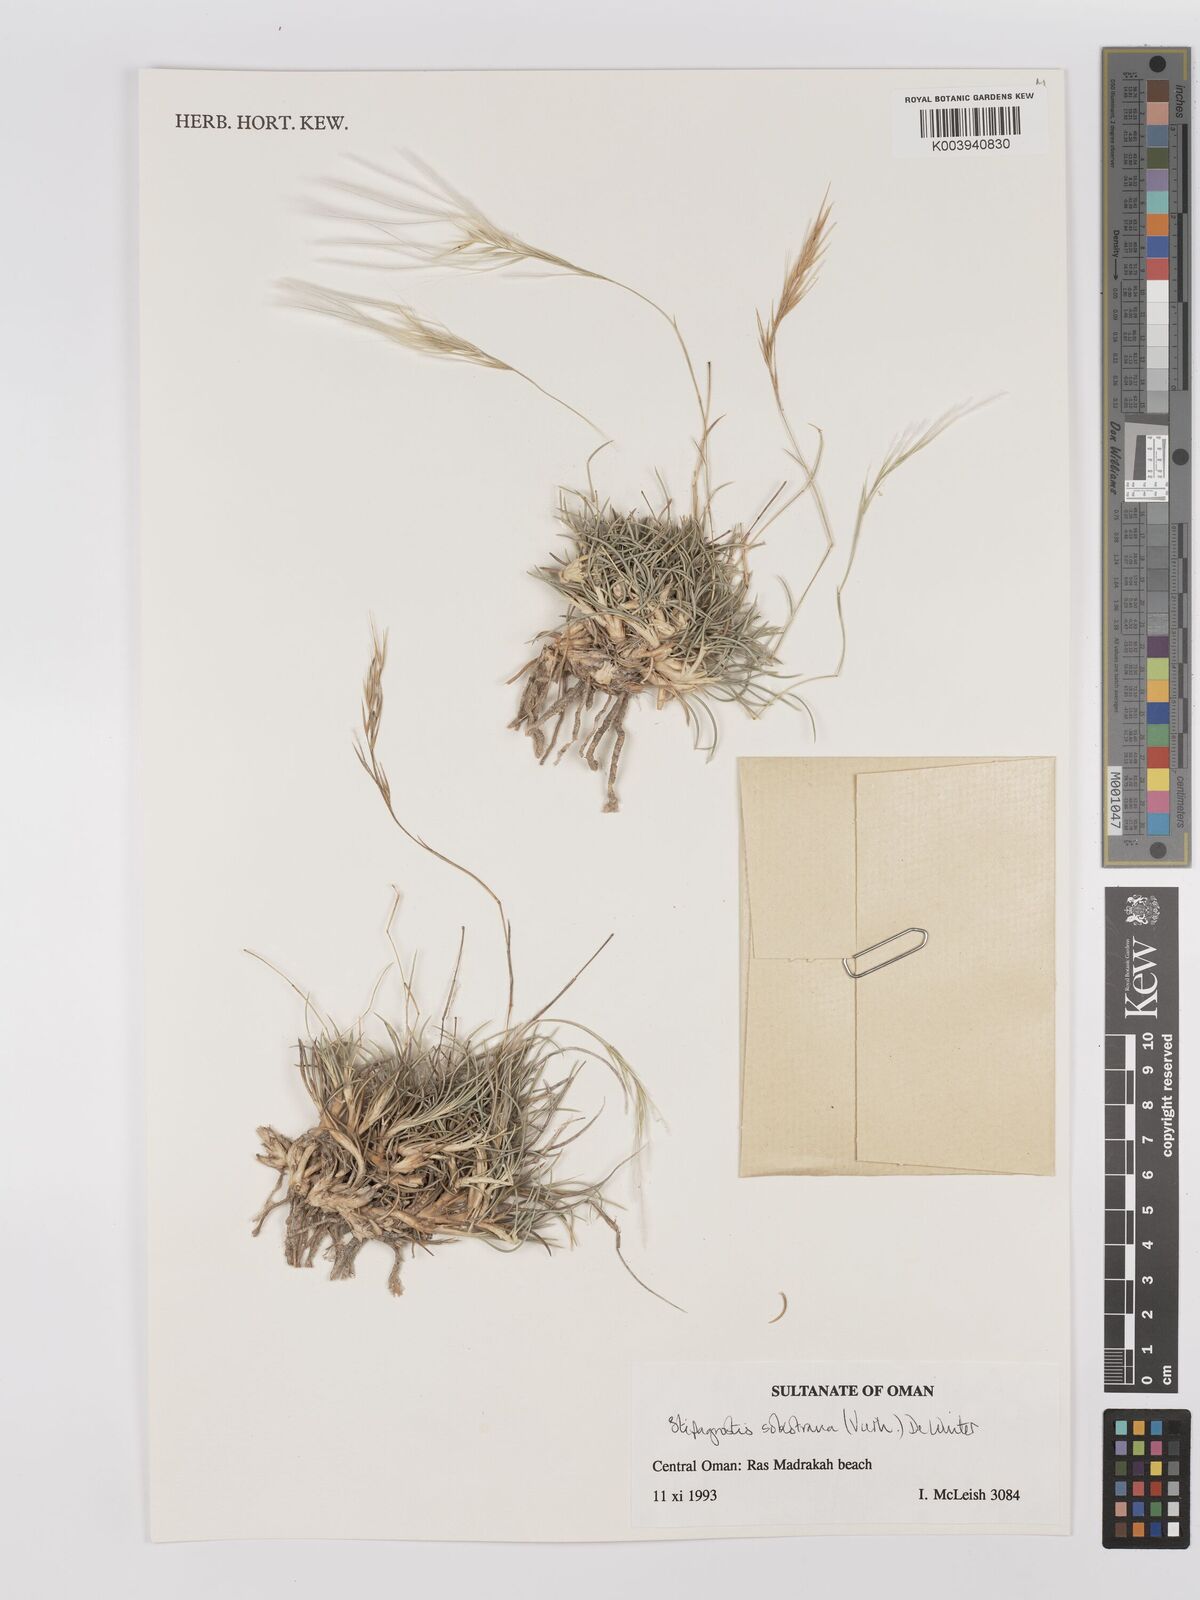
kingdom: Plantae
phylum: Tracheophyta
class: Liliopsida
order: Poales
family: Poaceae
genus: Stipagrostis
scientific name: Stipagrostis sokotrana
